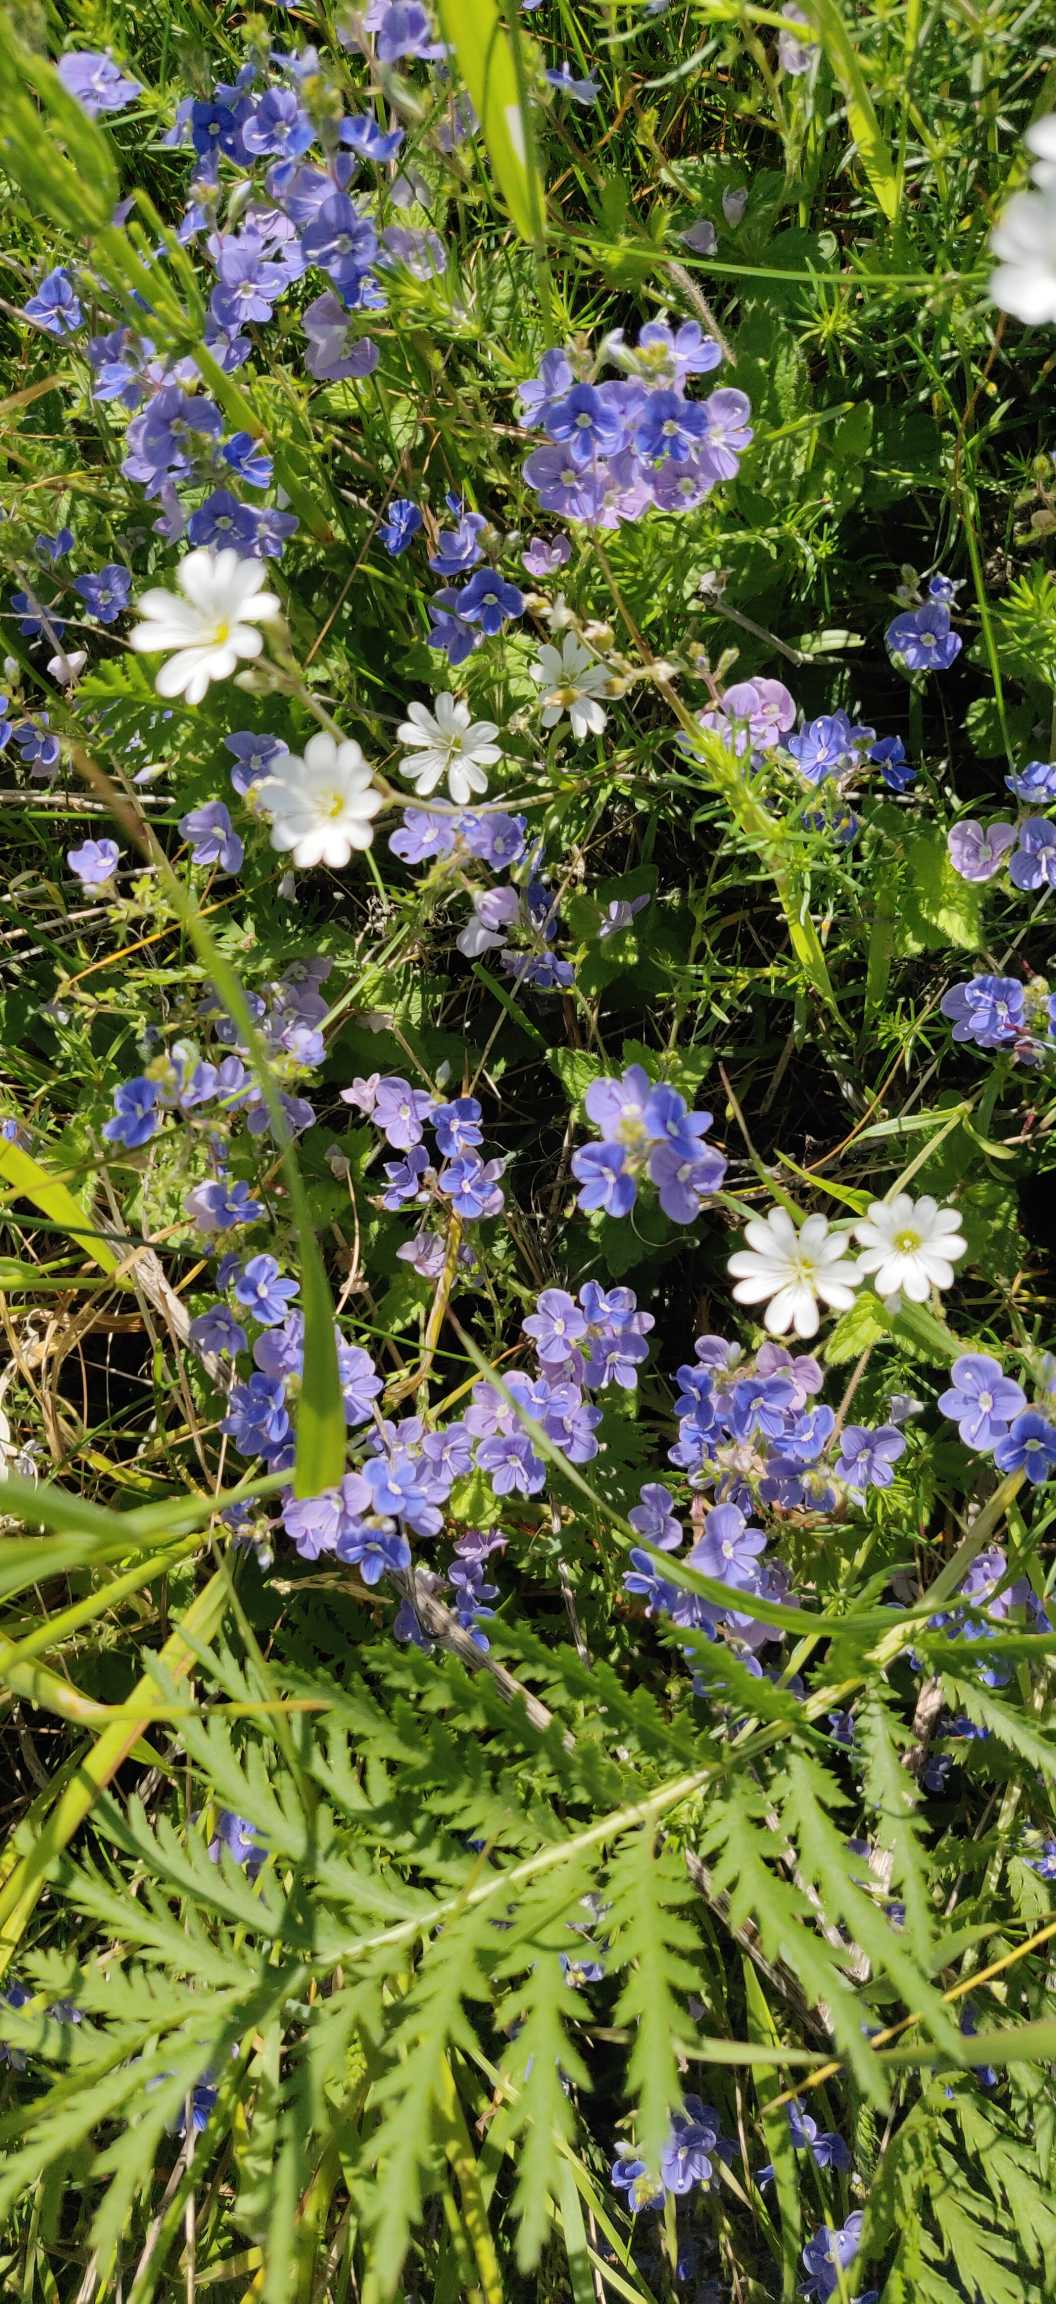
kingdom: Plantae
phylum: Tracheophyta
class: Magnoliopsida
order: Lamiales
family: Plantaginaceae
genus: Veronica
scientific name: Veronica chamaedrys
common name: Tveskægget ærenpris
